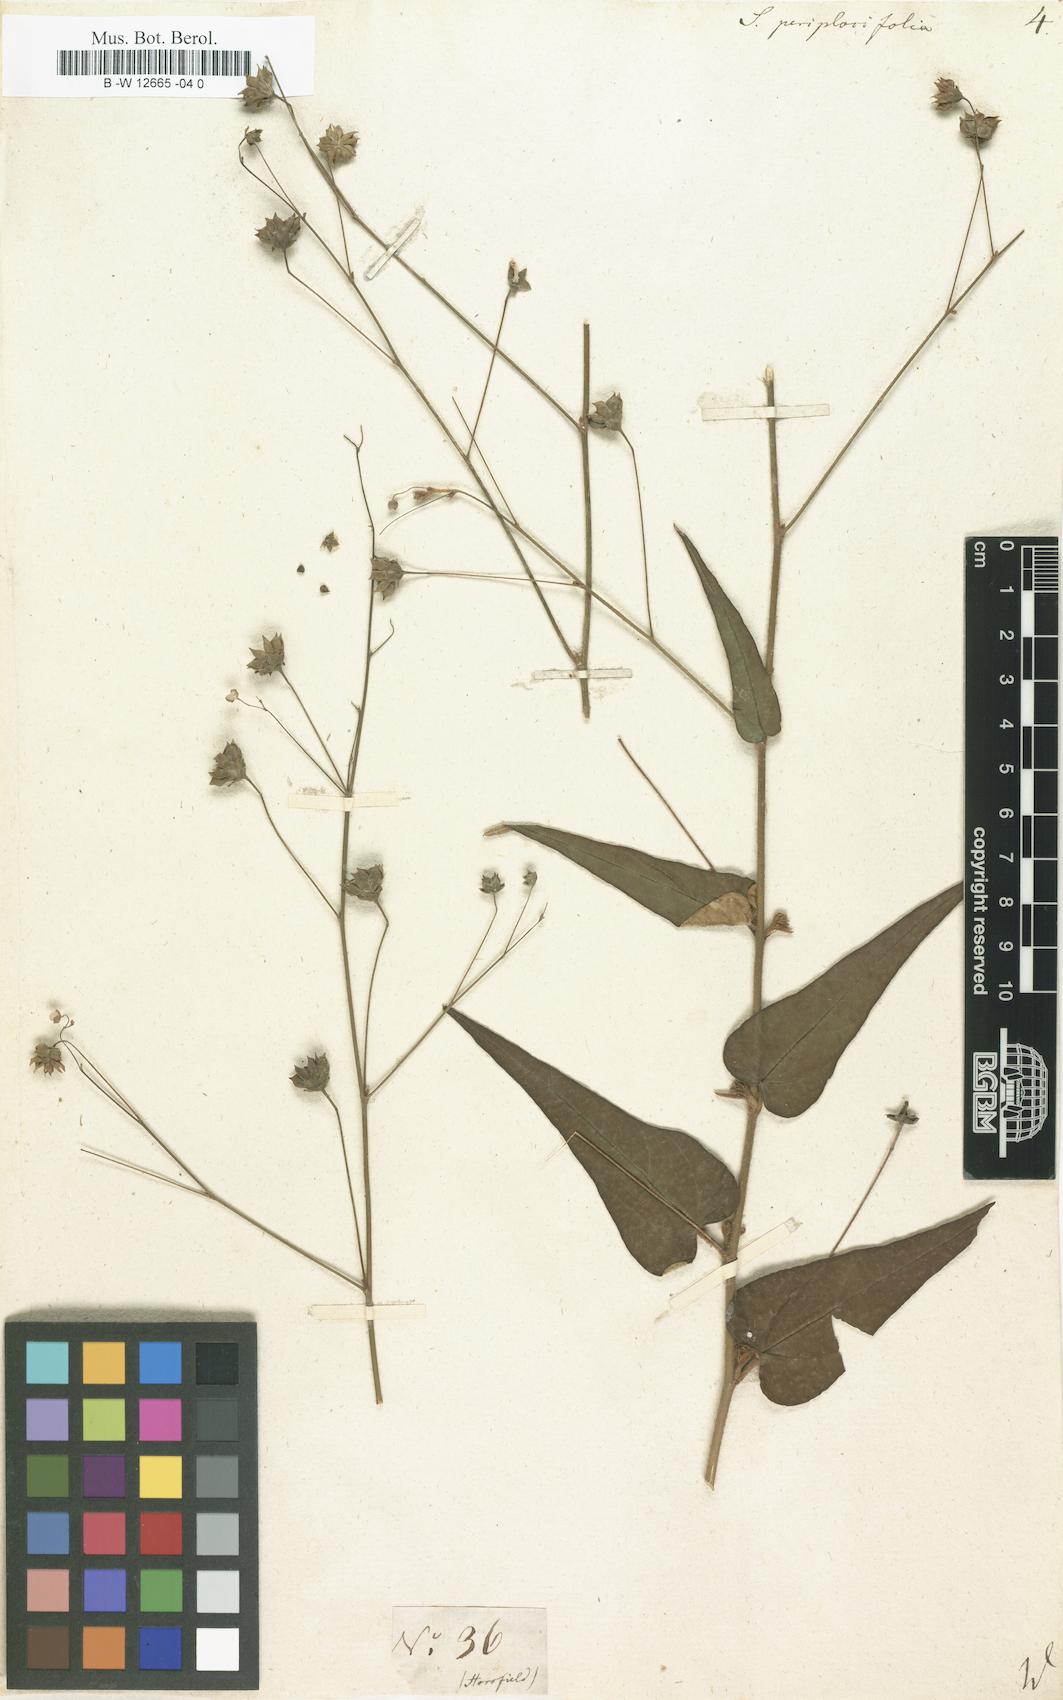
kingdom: Plantae
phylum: Tracheophyta
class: Magnoliopsida
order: Malvales
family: Malvaceae
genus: Wissadula
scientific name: Wissadula periplocifolia
